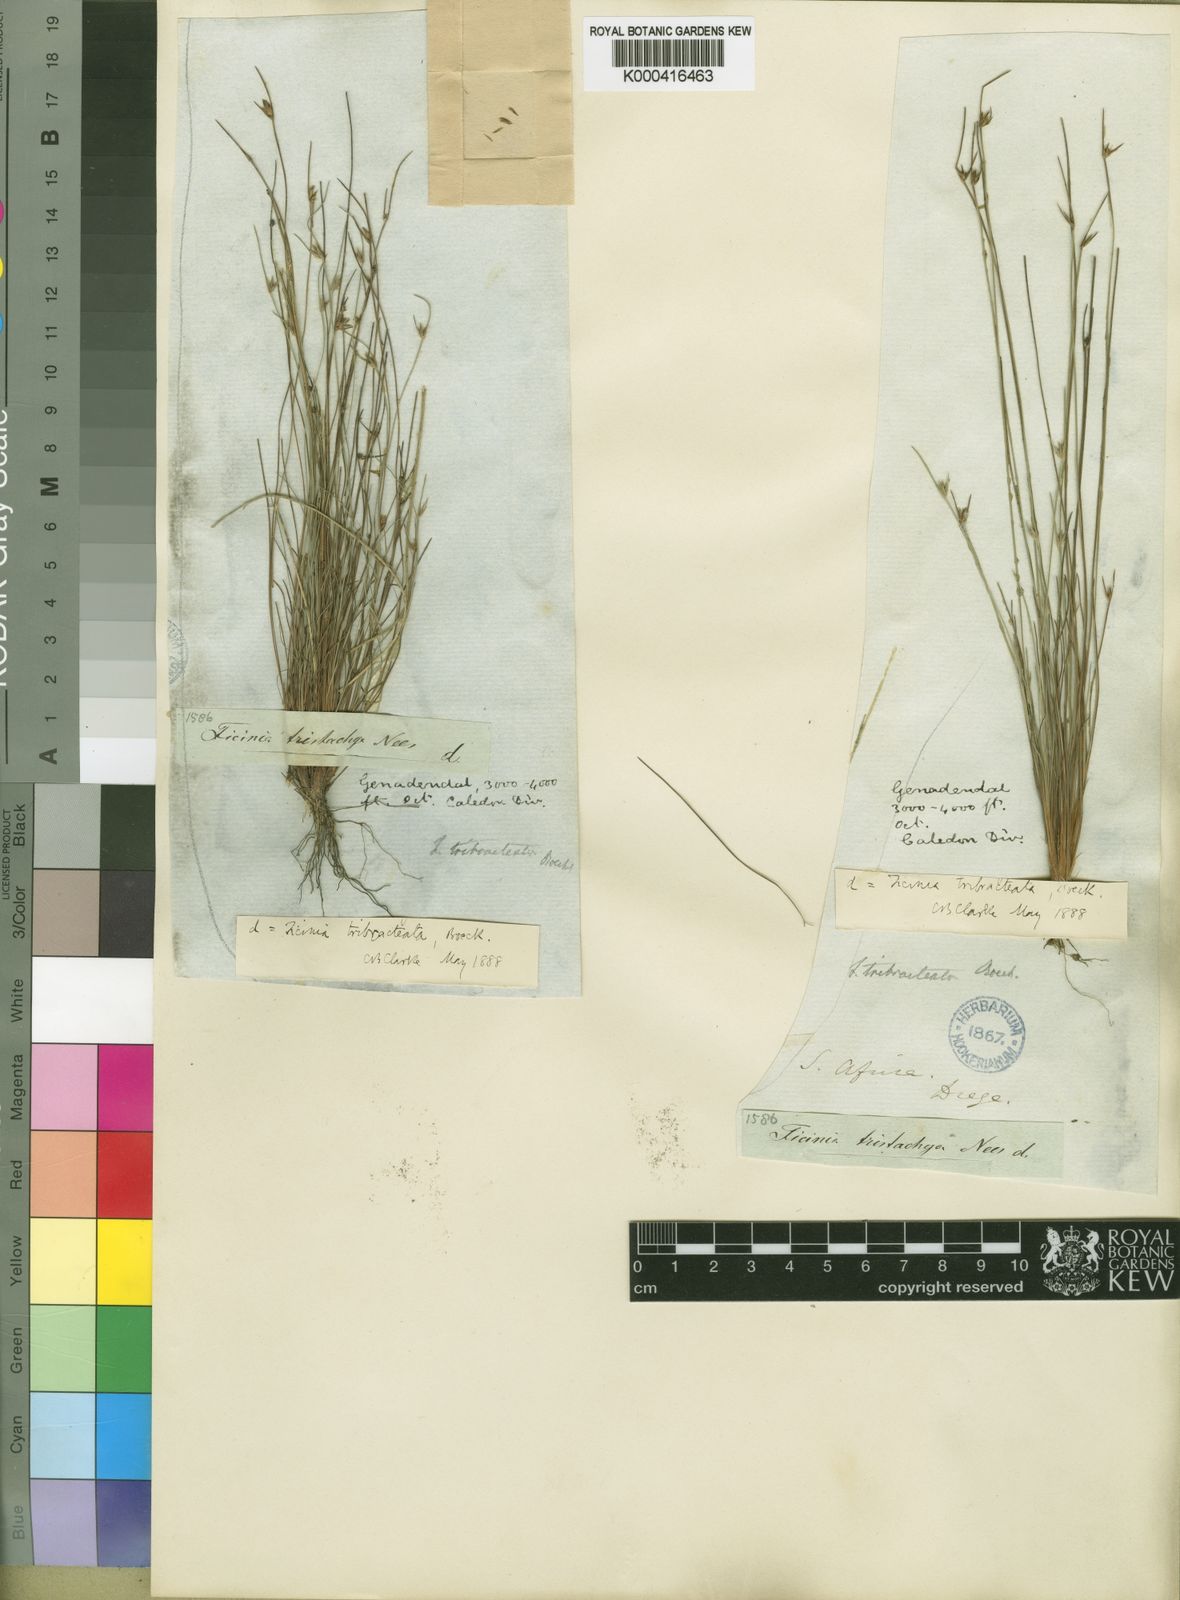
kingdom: Plantae
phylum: Tracheophyta
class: Liliopsida
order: Poales
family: Cyperaceae
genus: Ficinia
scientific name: Ficinia tristachya
